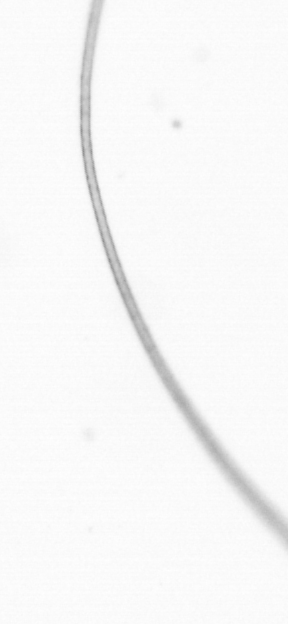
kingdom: Chromista
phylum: Ochrophyta
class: Bacillariophyceae
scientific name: Bacillariophyceae
